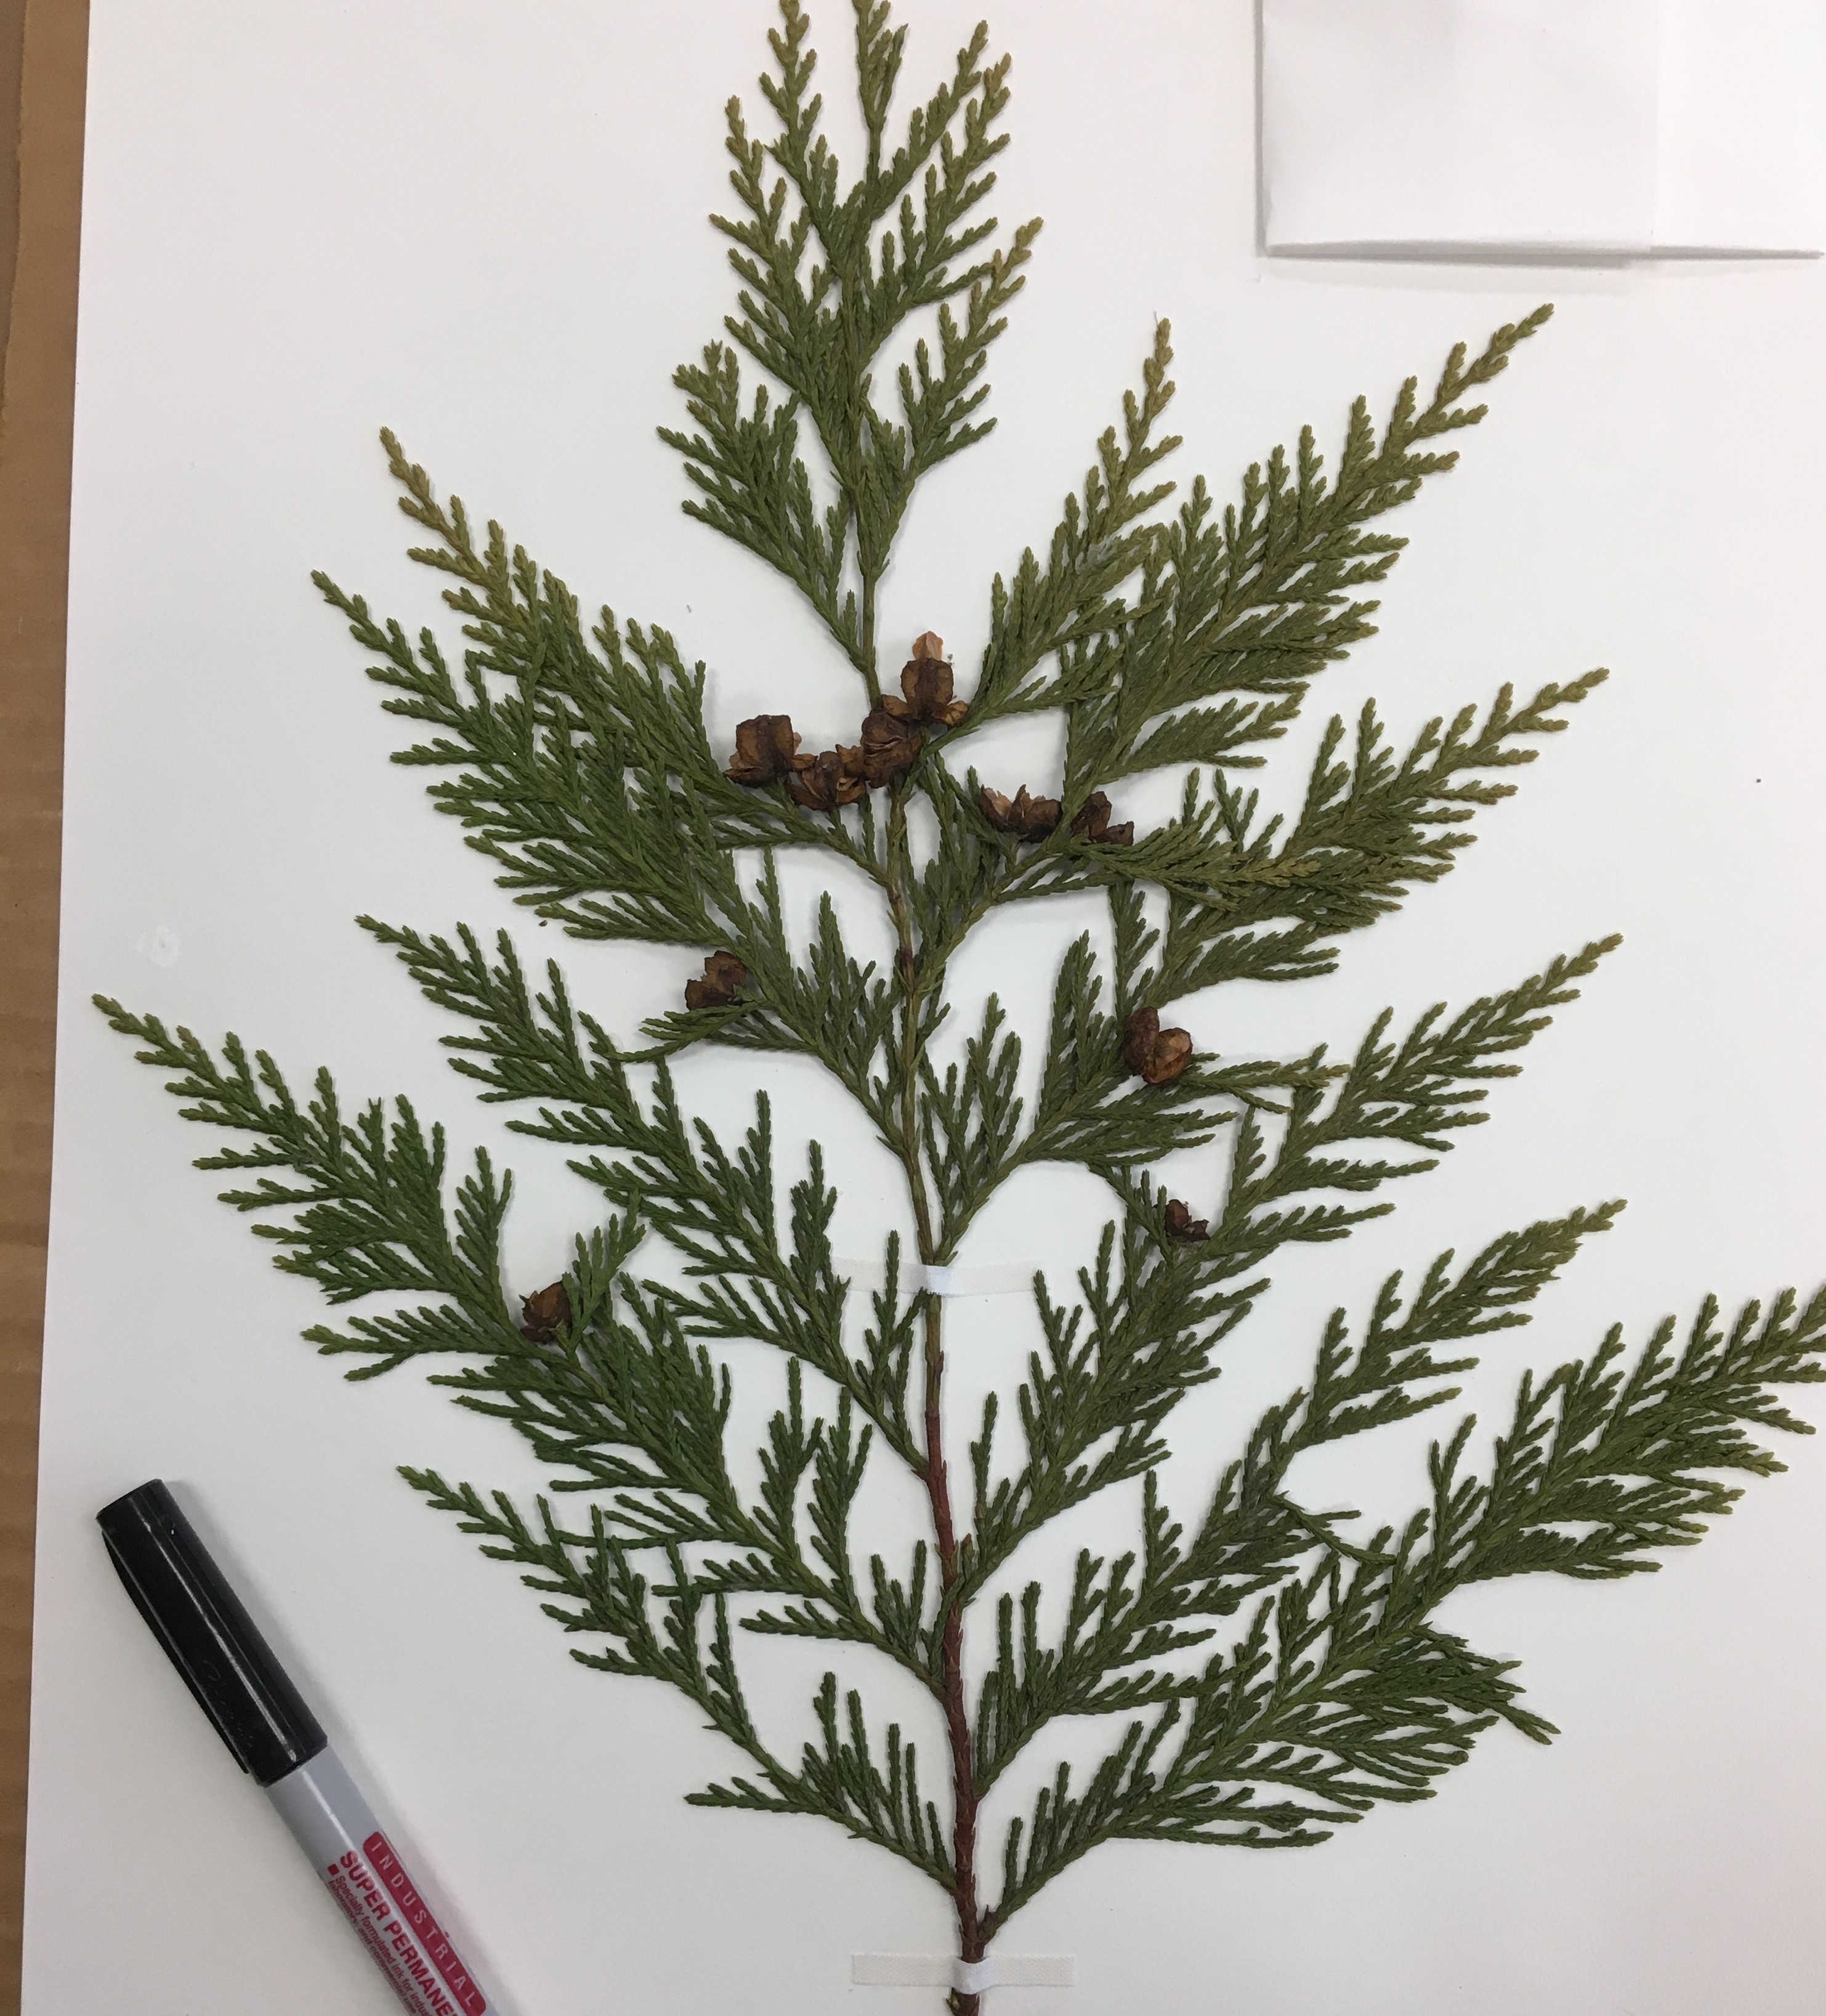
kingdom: Plantae
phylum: Tracheophyta
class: Pinopsida
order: Pinales
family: Cupressaceae
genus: Xanthocyparis
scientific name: Xanthocyparis nootkatensis
